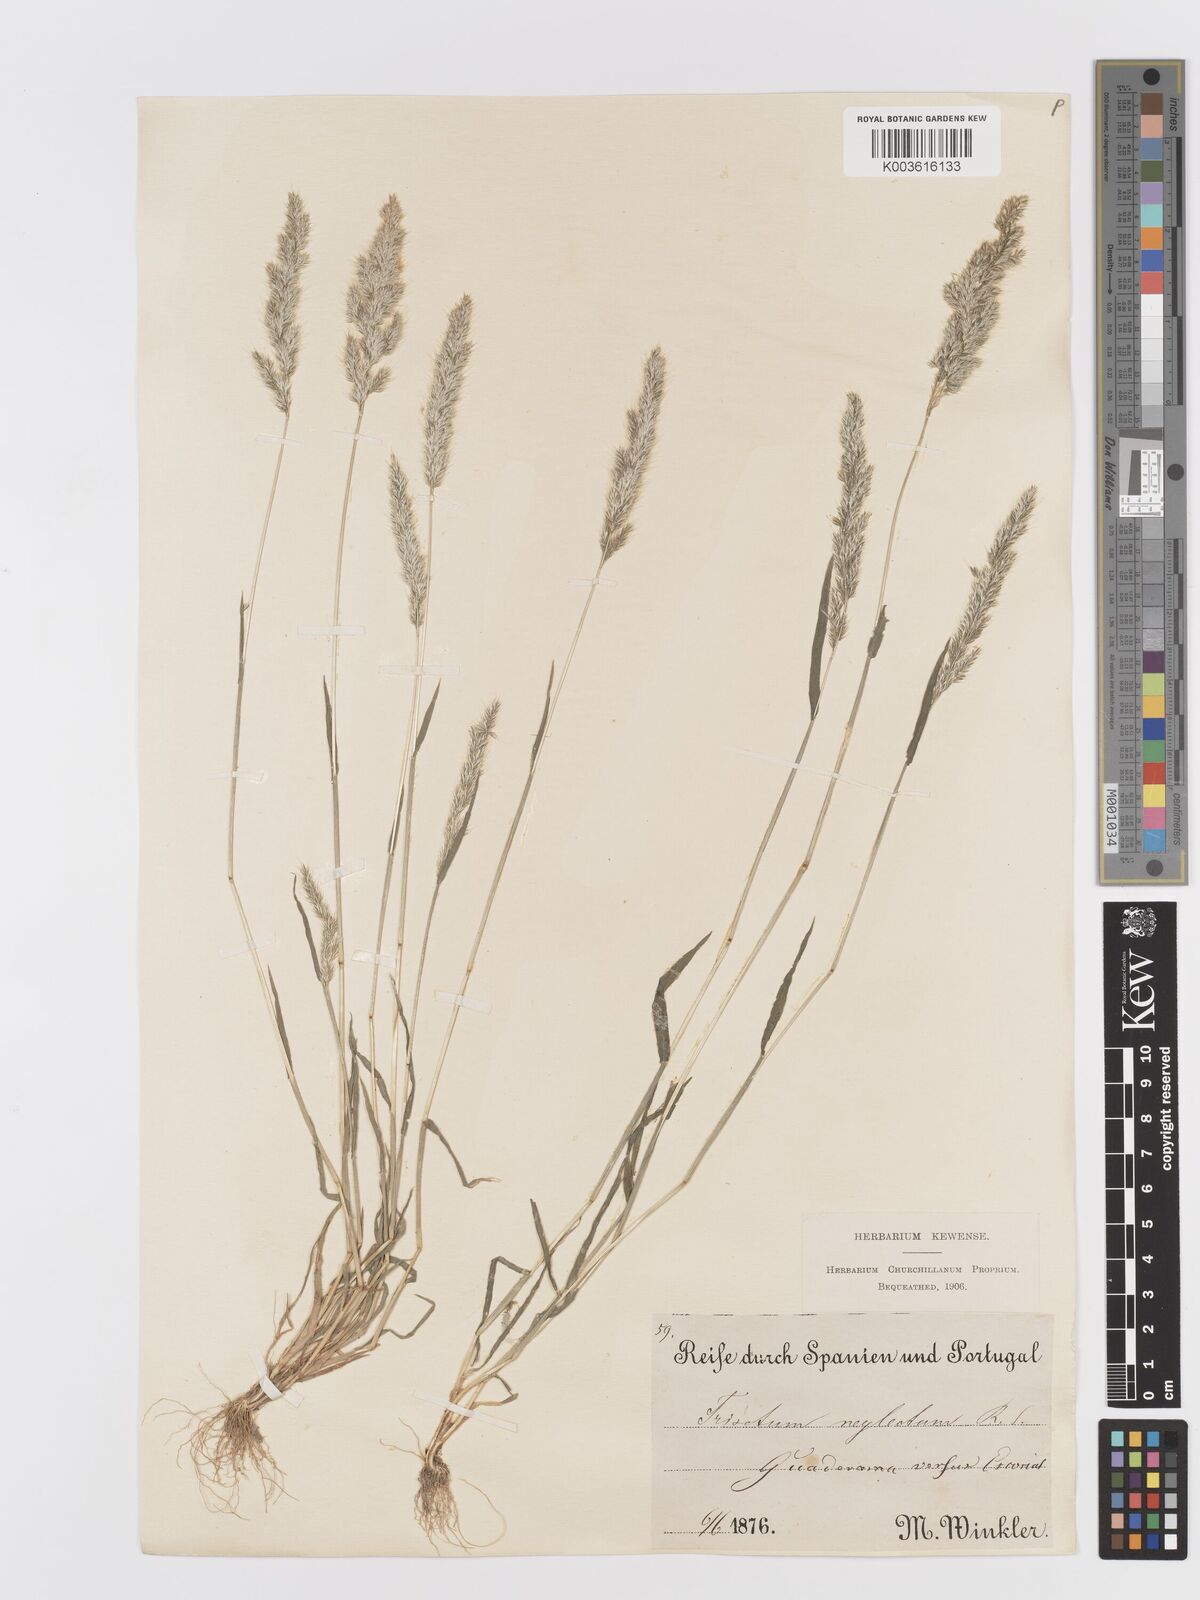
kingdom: Plantae
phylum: Tracheophyta
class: Liliopsida
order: Poales
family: Poaceae
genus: Trisetaria
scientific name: Trisetaria panicea
